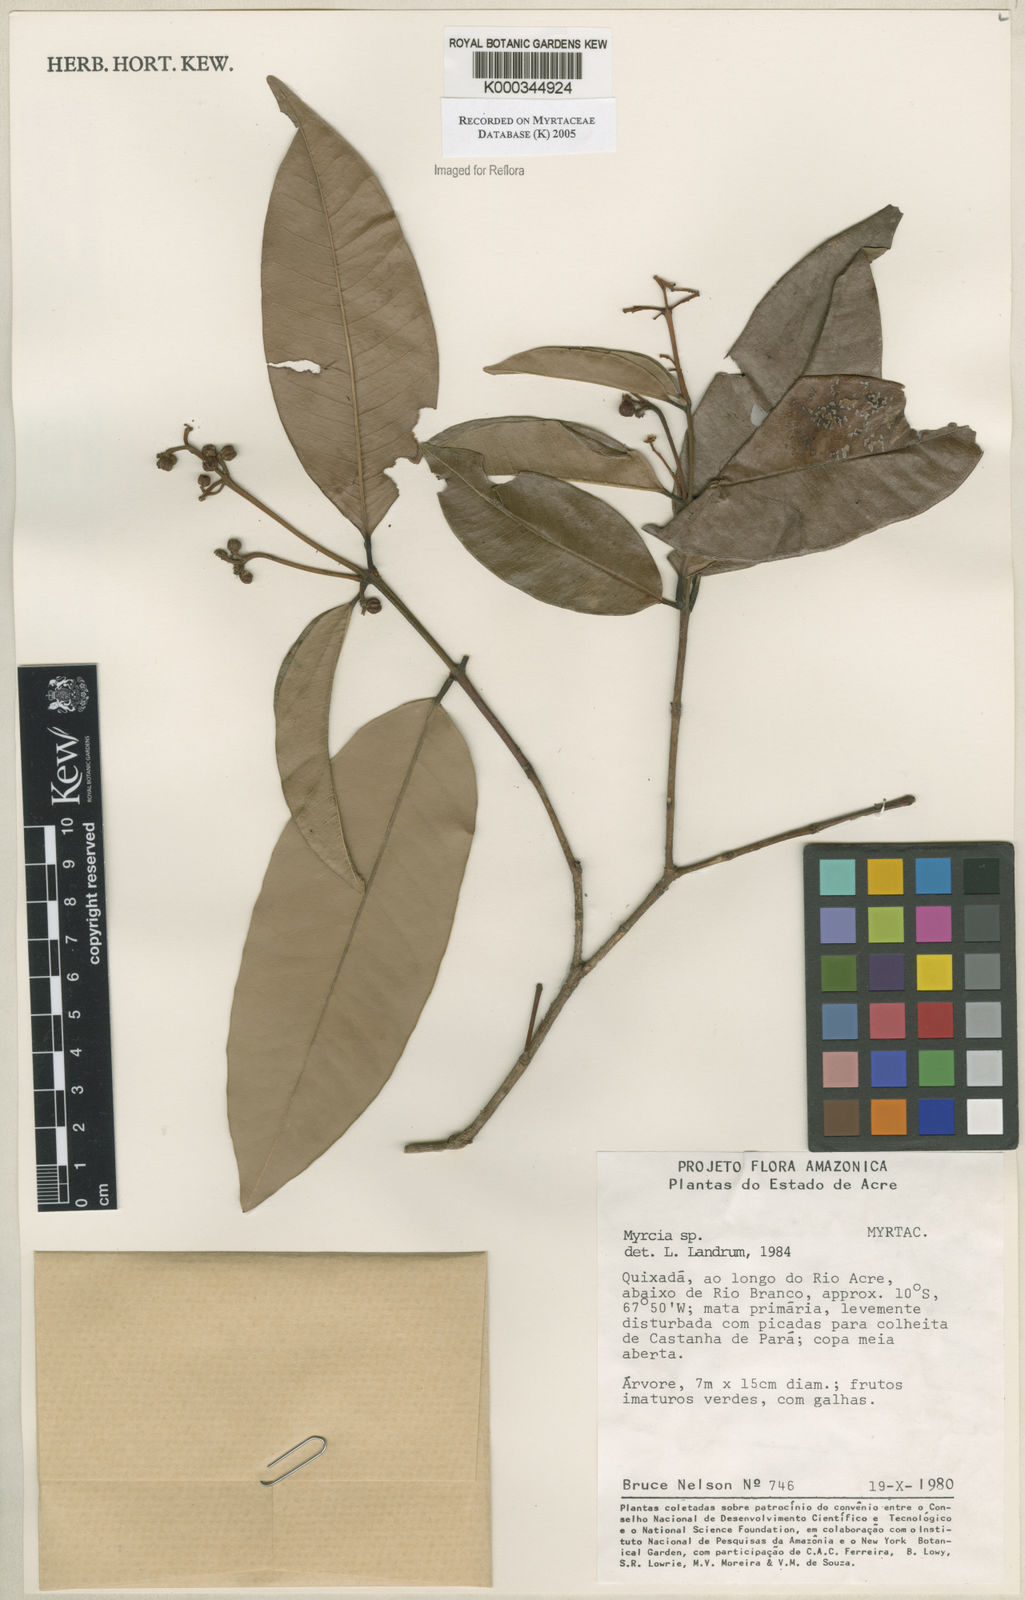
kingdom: Plantae
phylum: Tracheophyta
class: Magnoliopsida
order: Myrtales
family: Myrtaceae
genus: Myrcia
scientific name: Myrcia
